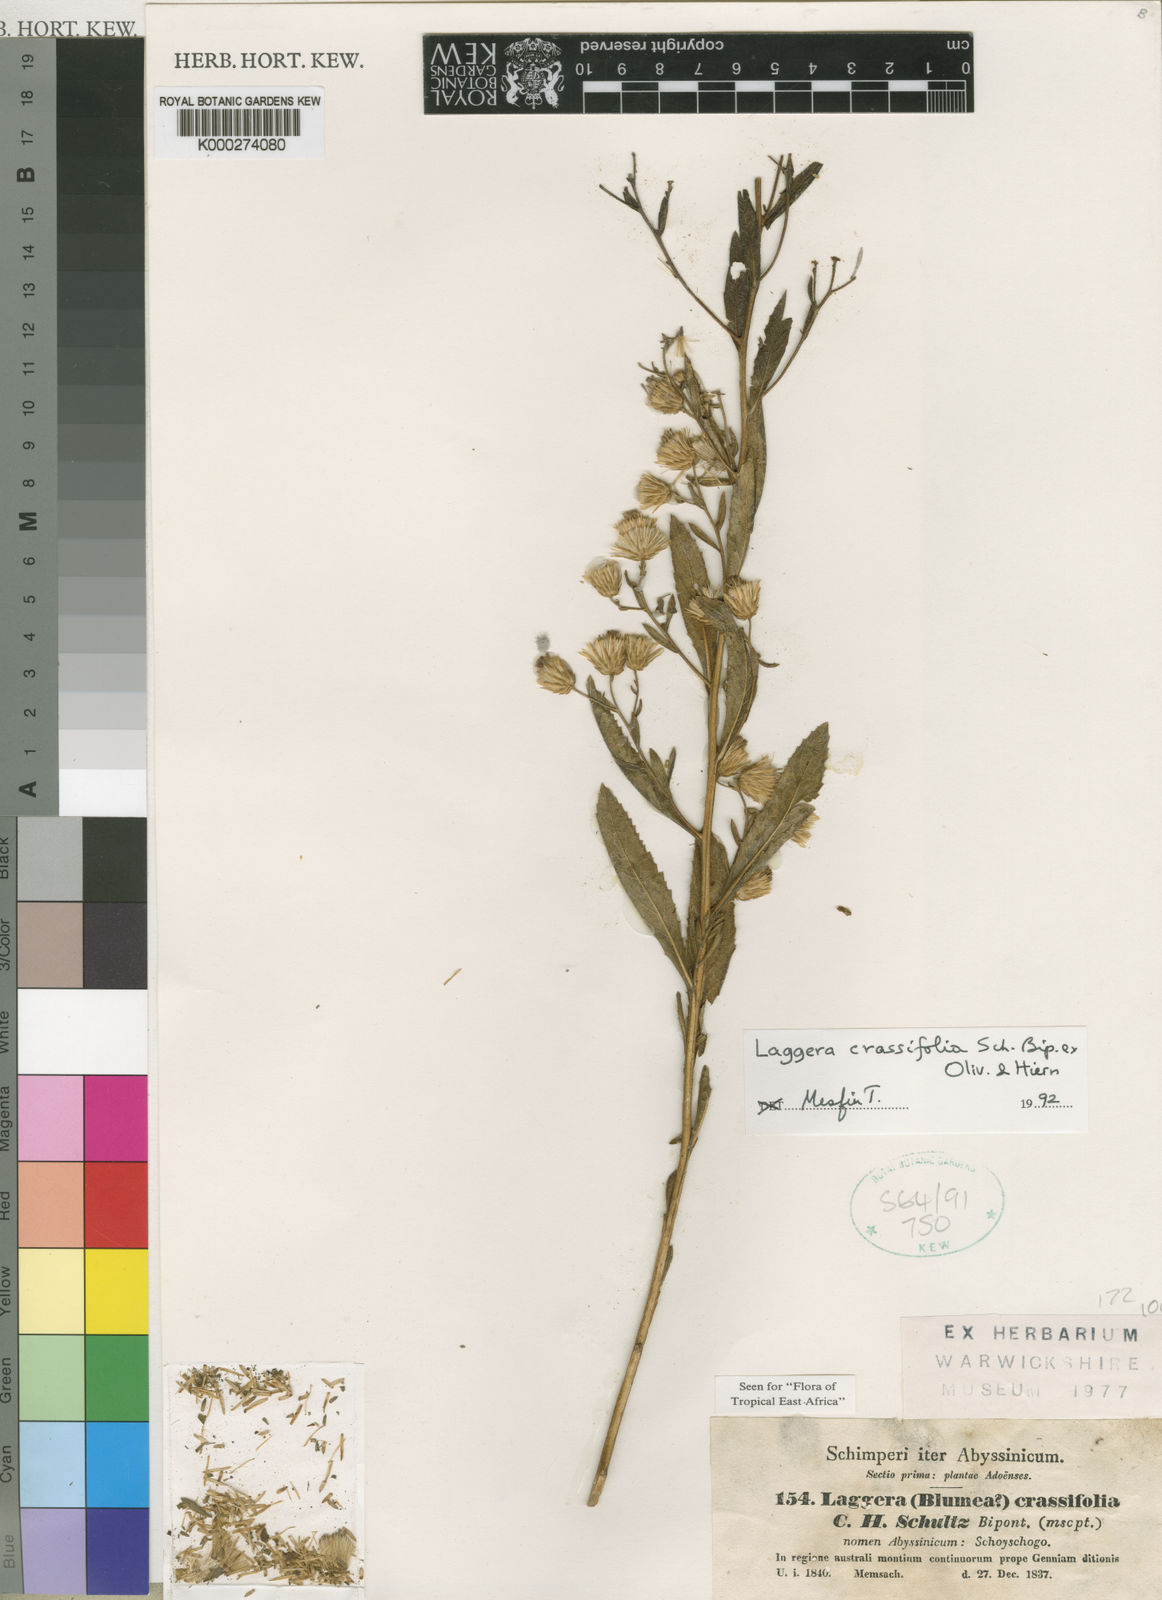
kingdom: Plantae
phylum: Tracheophyta
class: Magnoliopsida
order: Asterales
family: Asteraceae
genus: Laggera
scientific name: Laggera
